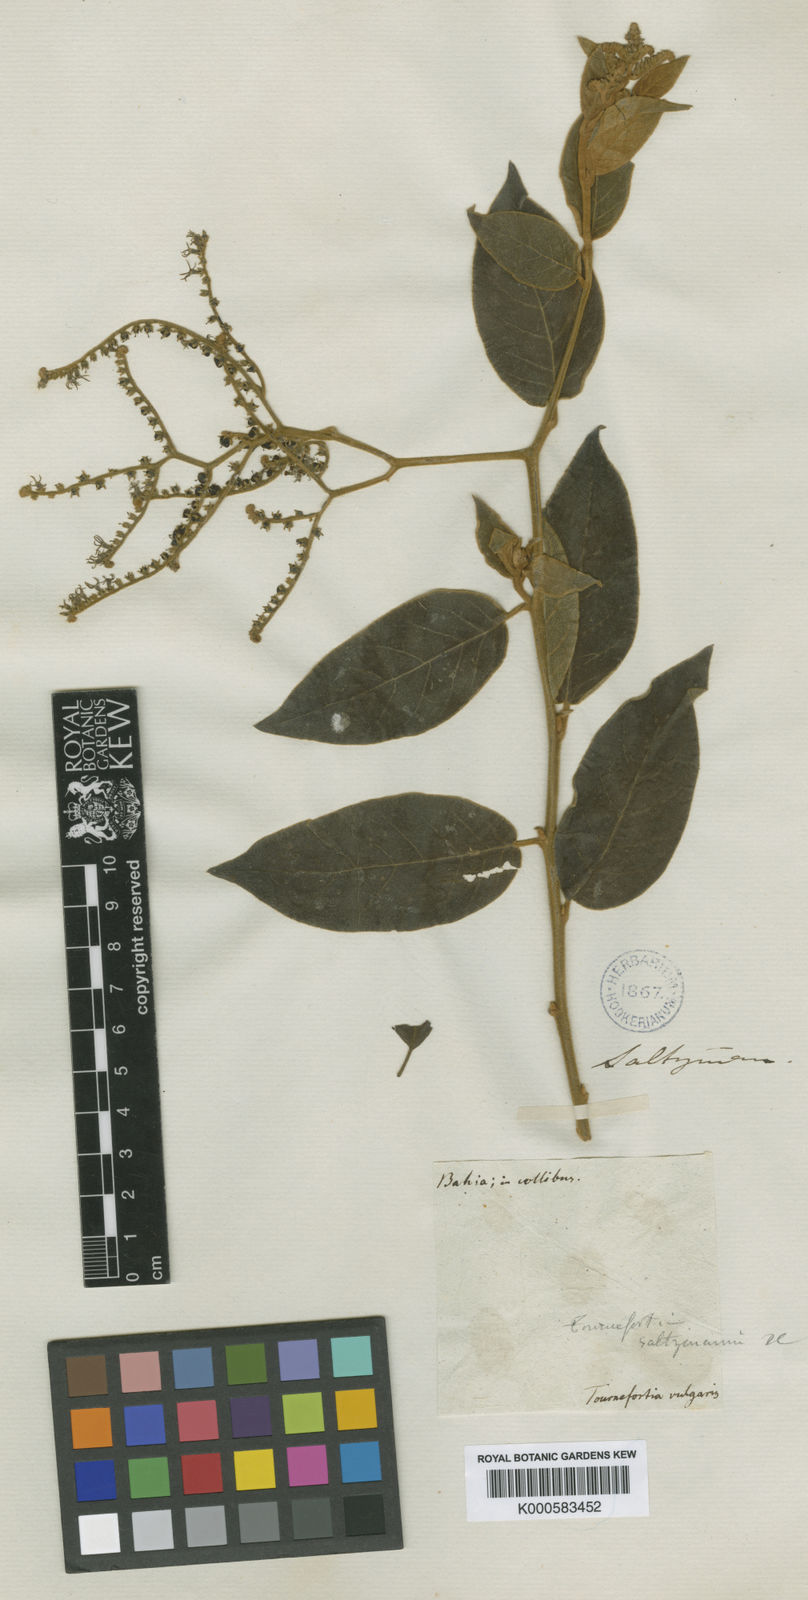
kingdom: Plantae
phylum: Tracheophyta
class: Magnoliopsida
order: Boraginales
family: Heliotropiaceae
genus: Myriopus
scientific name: Myriopus salzmannii
